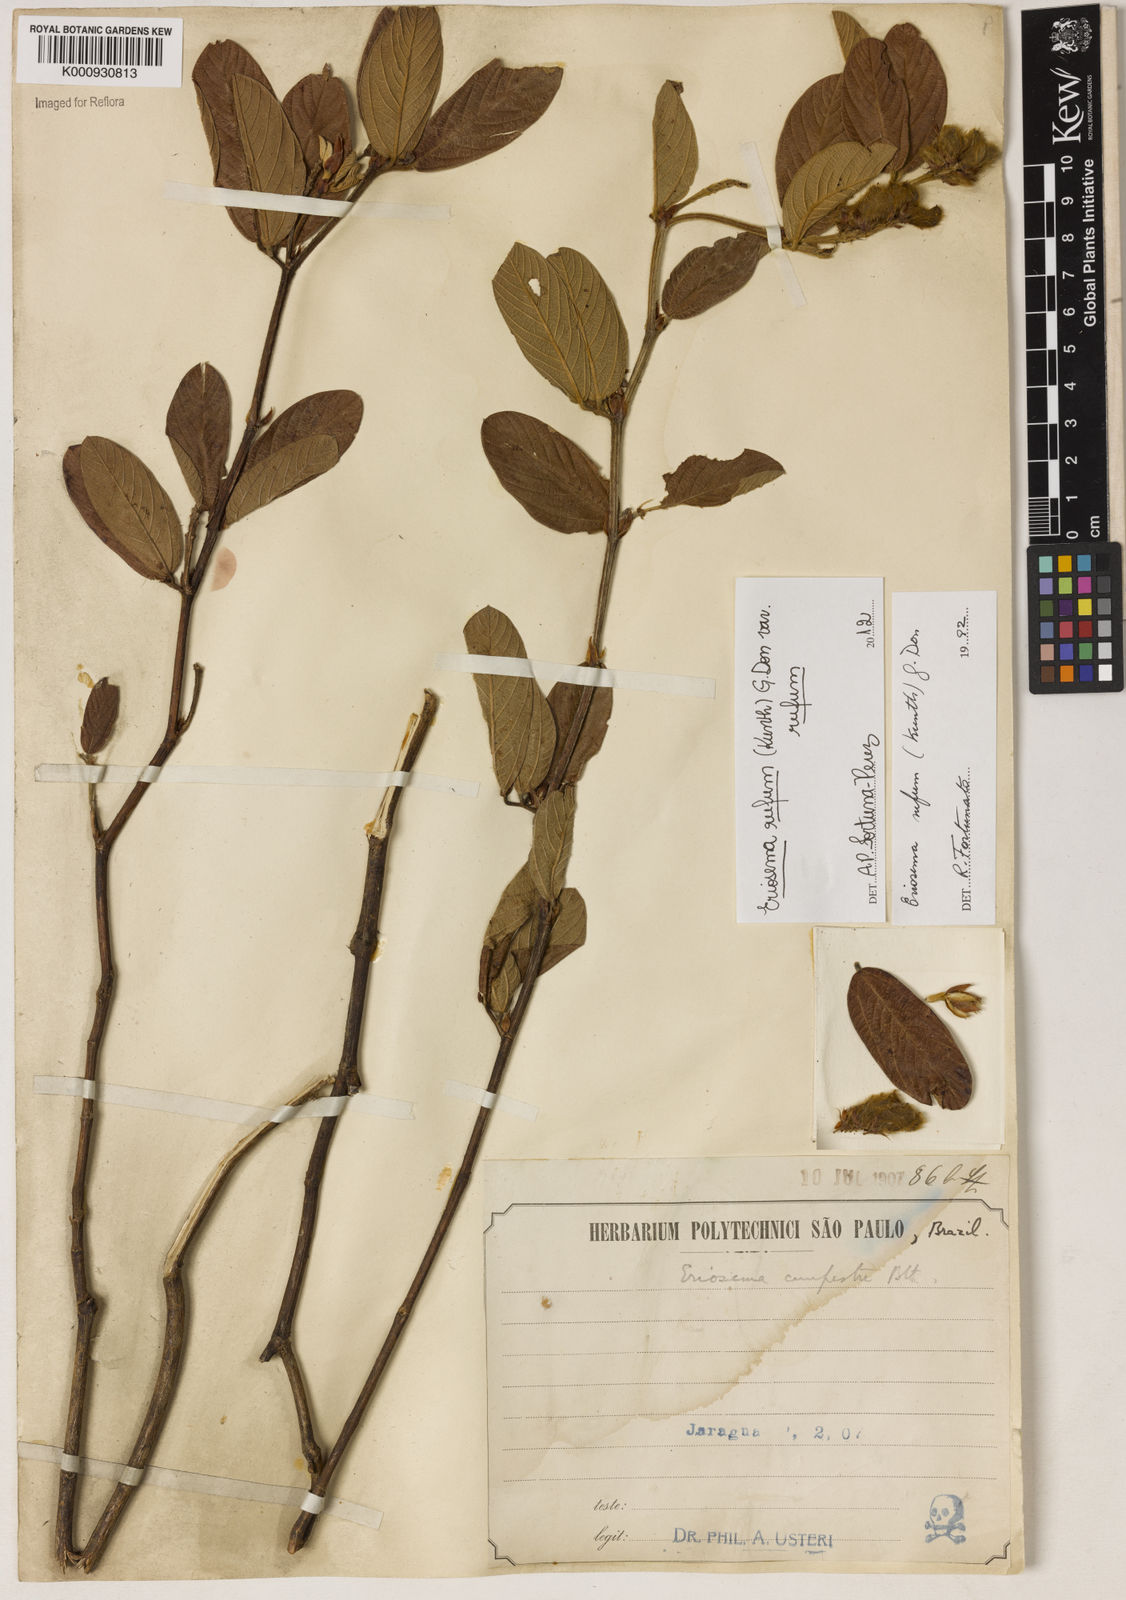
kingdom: Plantae
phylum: Tracheophyta
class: Magnoliopsida
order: Fabales
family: Fabaceae
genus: Eriosema
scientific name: Eriosema rufum
